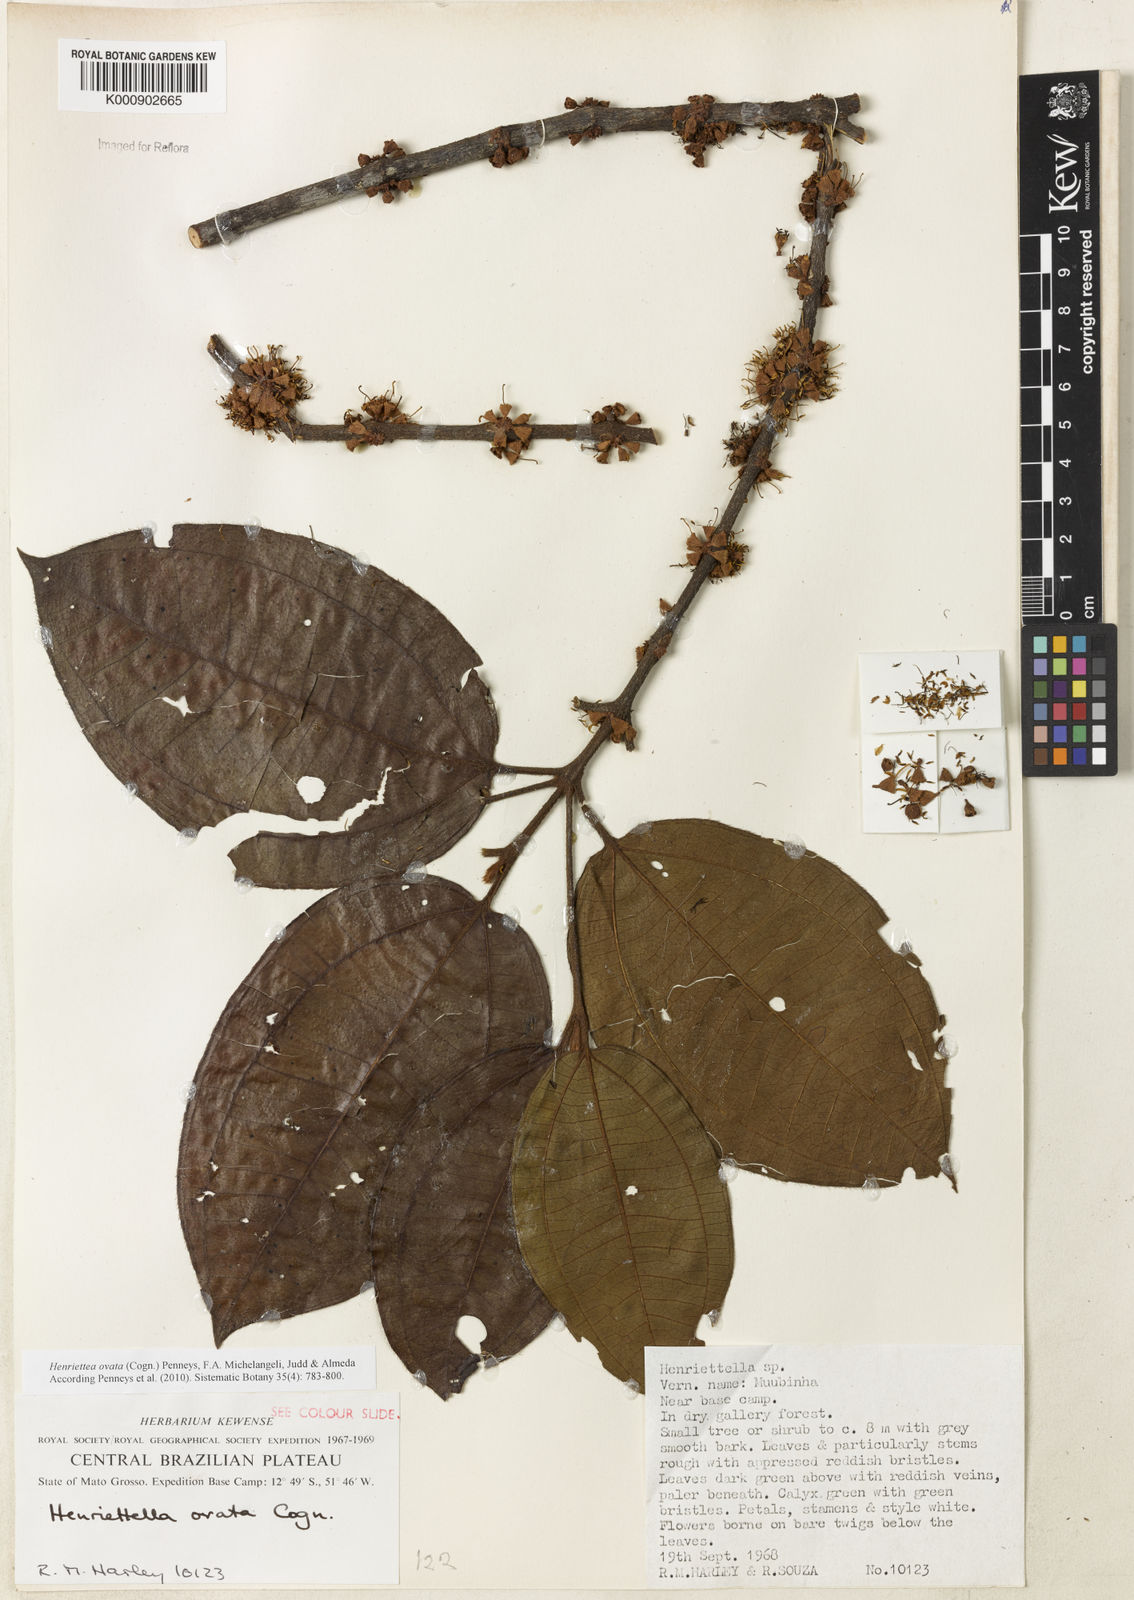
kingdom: Plantae
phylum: Tracheophyta
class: Magnoliopsida
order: Myrtales
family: Melastomataceae
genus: Henriettea
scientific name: Henriettea ovata
